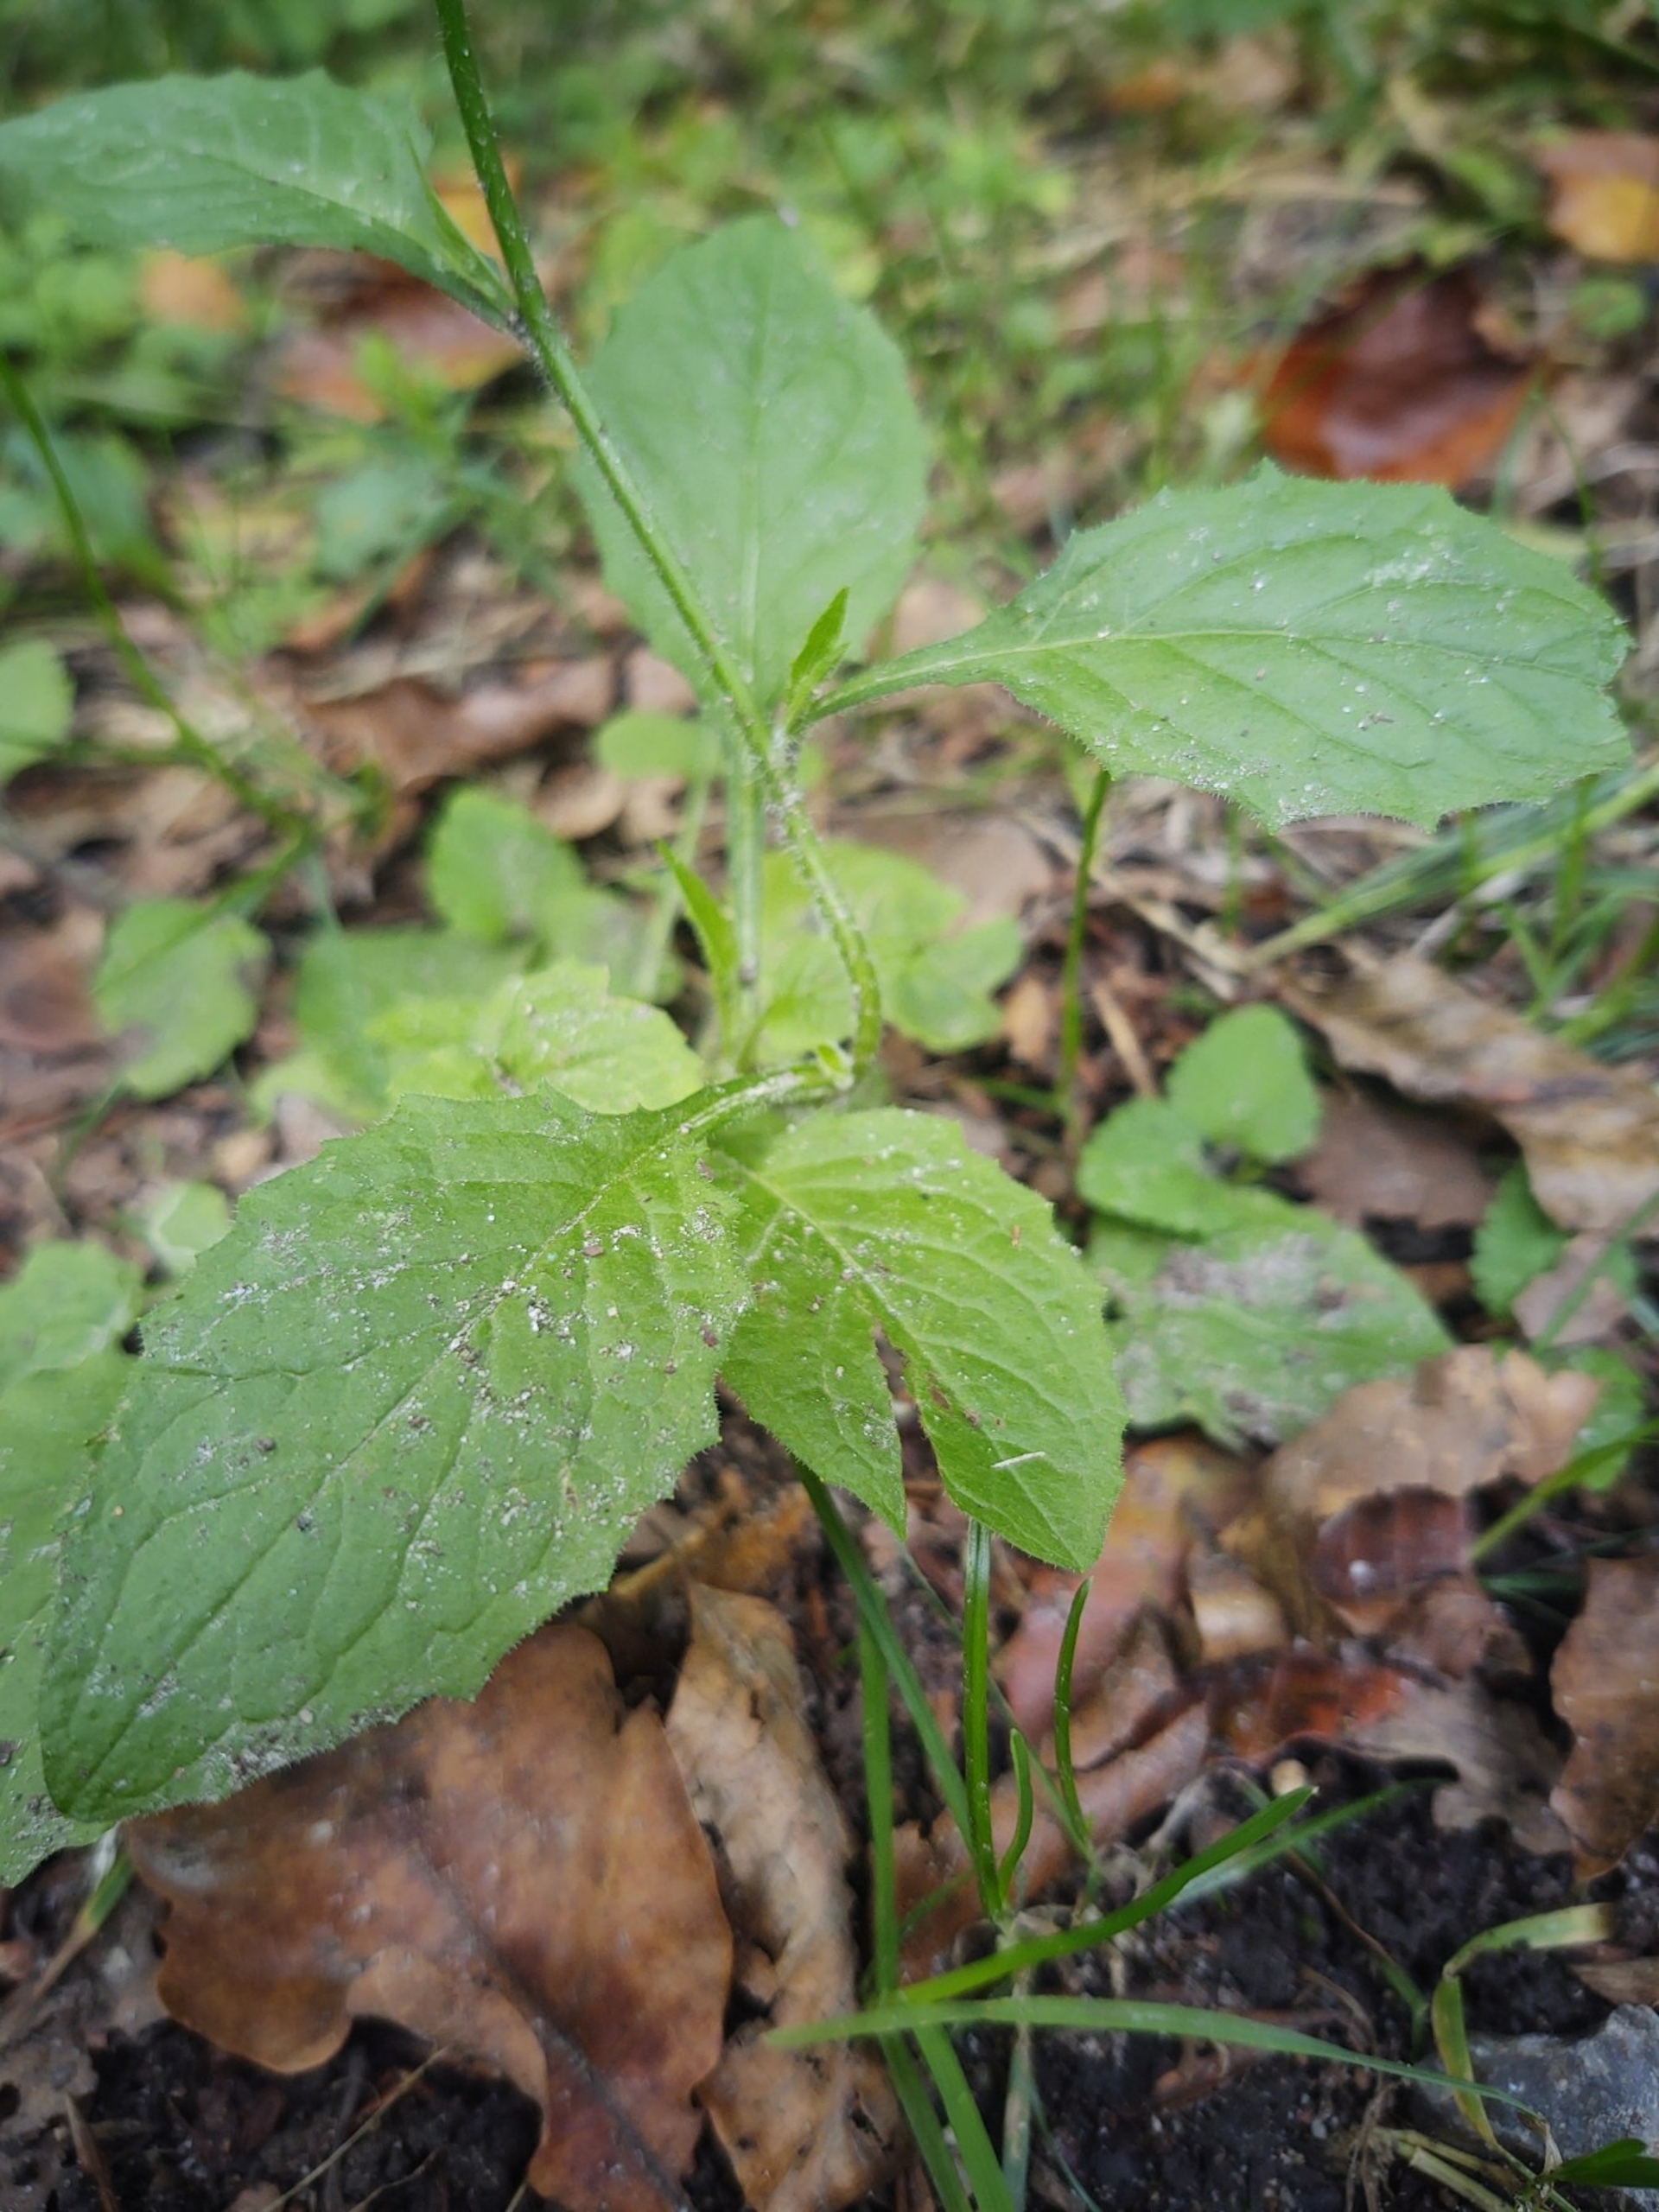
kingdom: Plantae
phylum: Tracheophyta
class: Magnoliopsida
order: Asterales
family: Asteraceae
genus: Lapsana
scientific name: Lapsana communis
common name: Haremad
